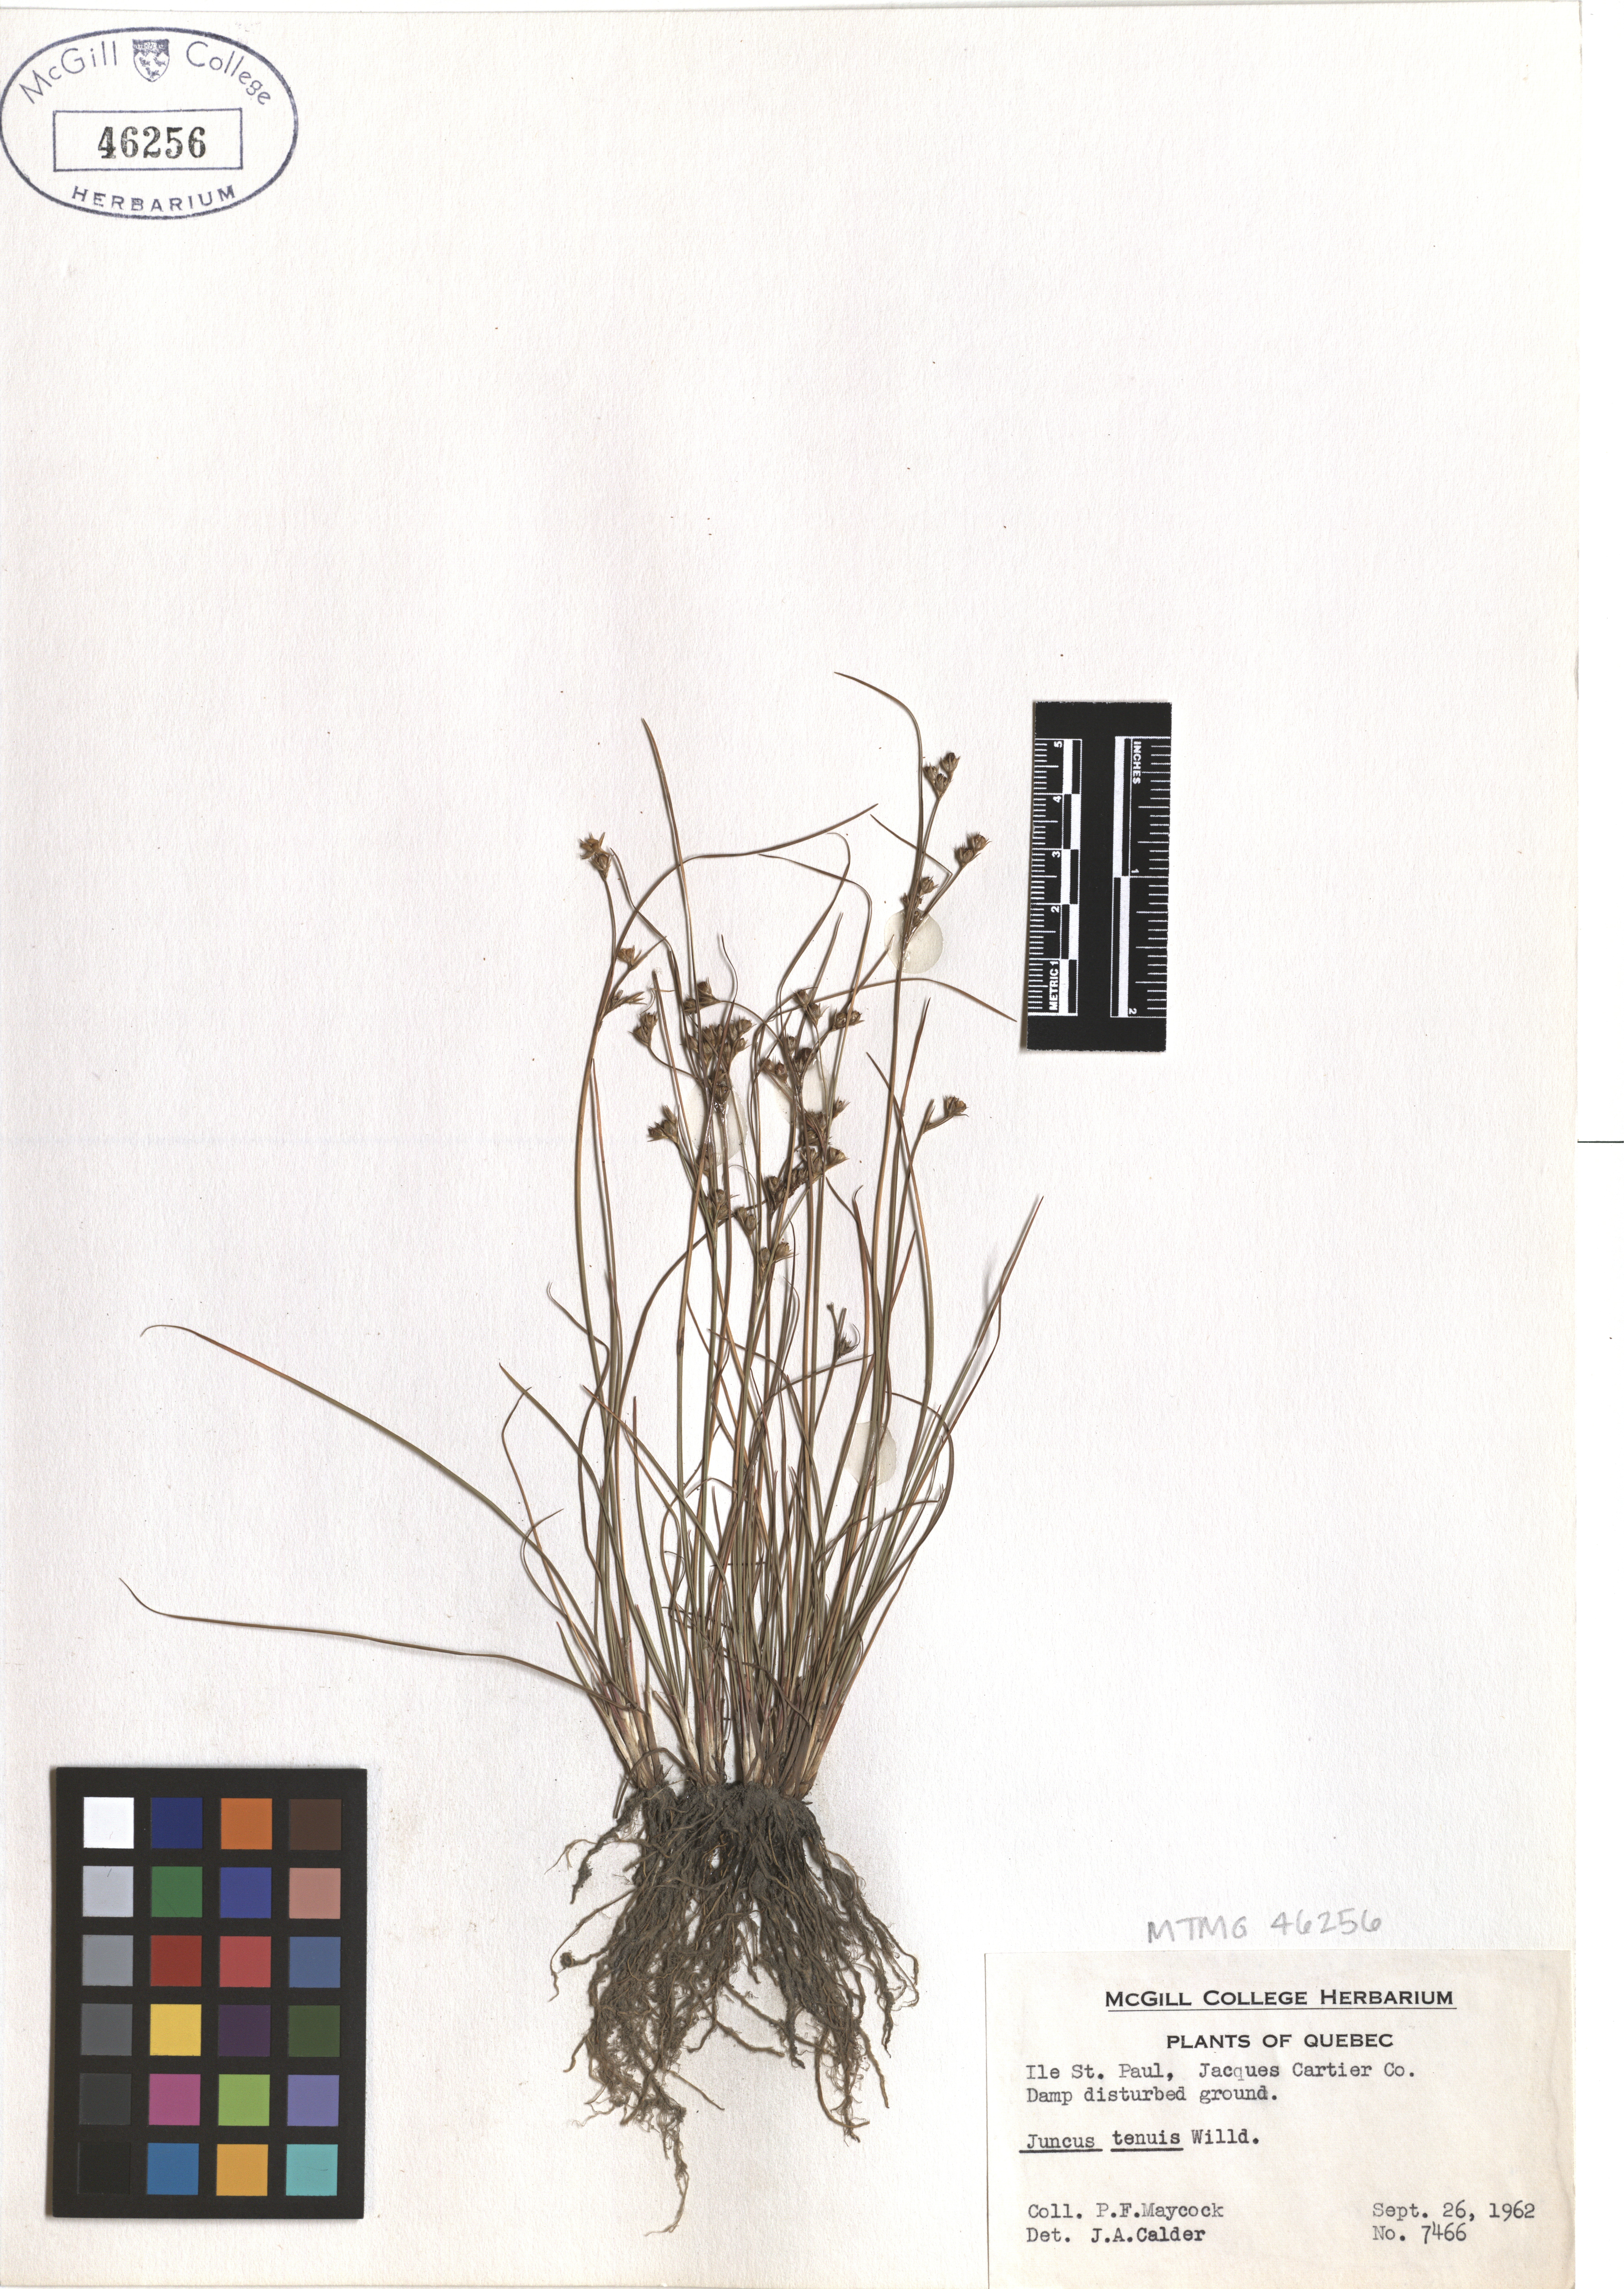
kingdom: Plantae
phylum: Tracheophyta
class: Liliopsida
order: Poales
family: Juncaceae
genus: Juncus
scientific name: Juncus tenuis
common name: Slender rush
